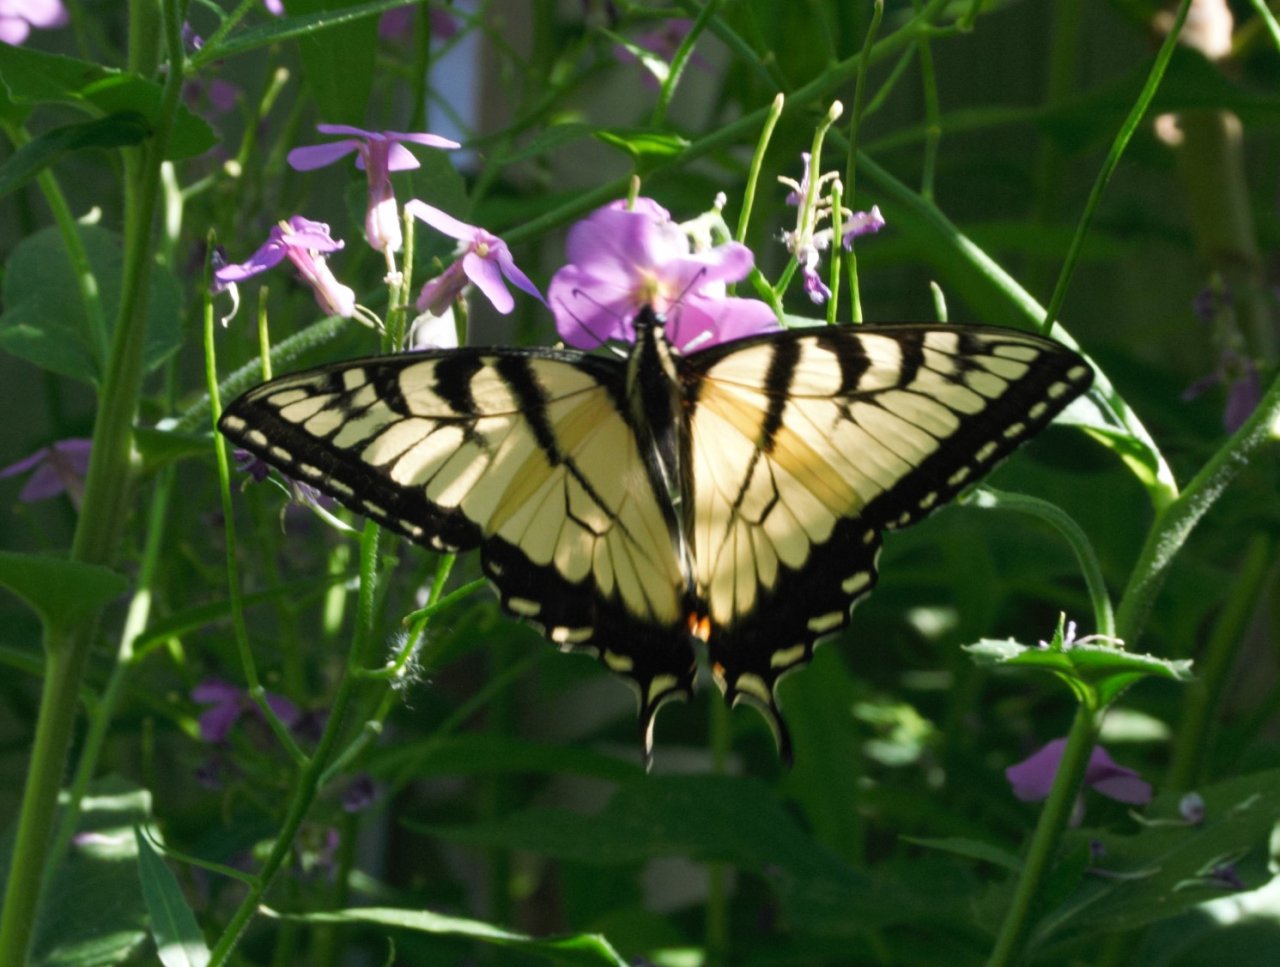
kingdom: Animalia
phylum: Arthropoda
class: Insecta
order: Lepidoptera
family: Papilionidae
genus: Pterourus
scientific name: Pterourus glaucus
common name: Eastern Tiger Swallowtail
